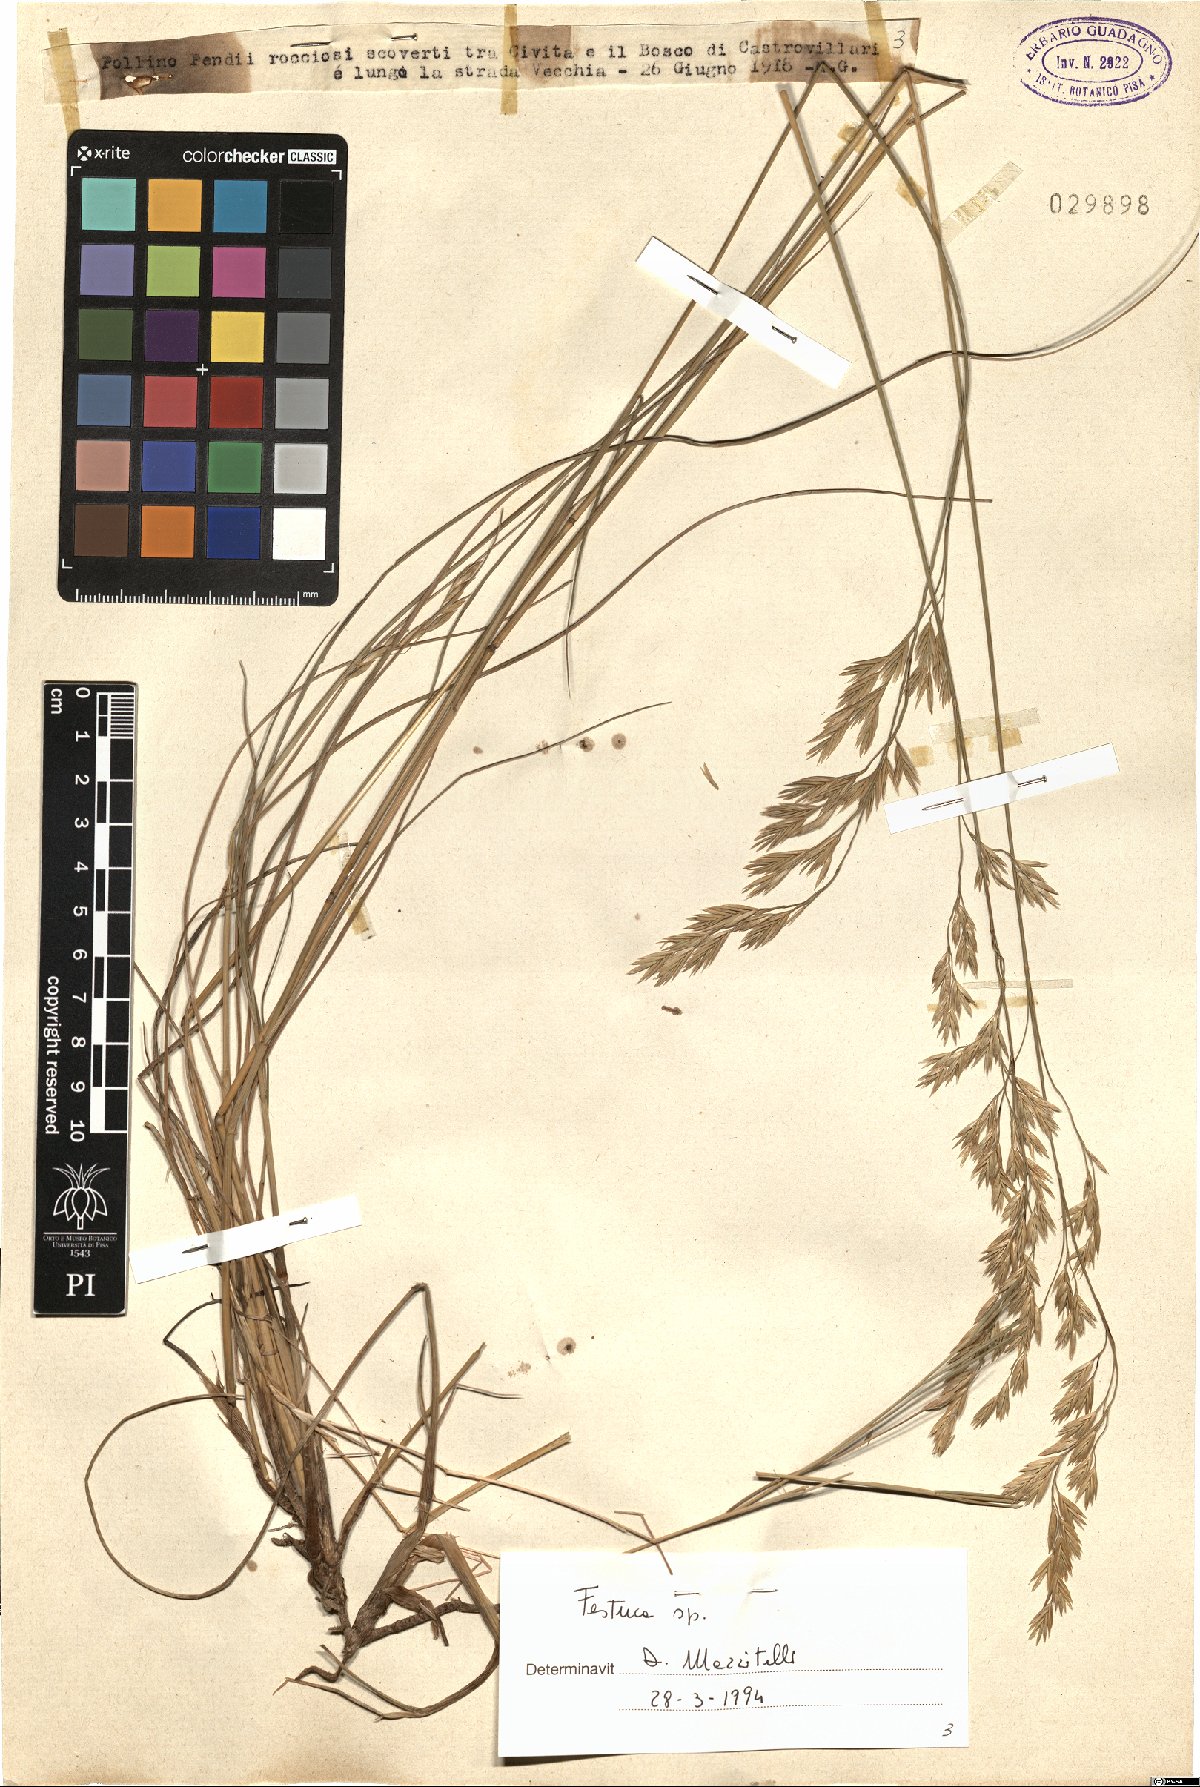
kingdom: Plantae
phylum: Tracheophyta
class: Liliopsida
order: Poales
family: Poaceae
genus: Festuca
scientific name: Festuca
